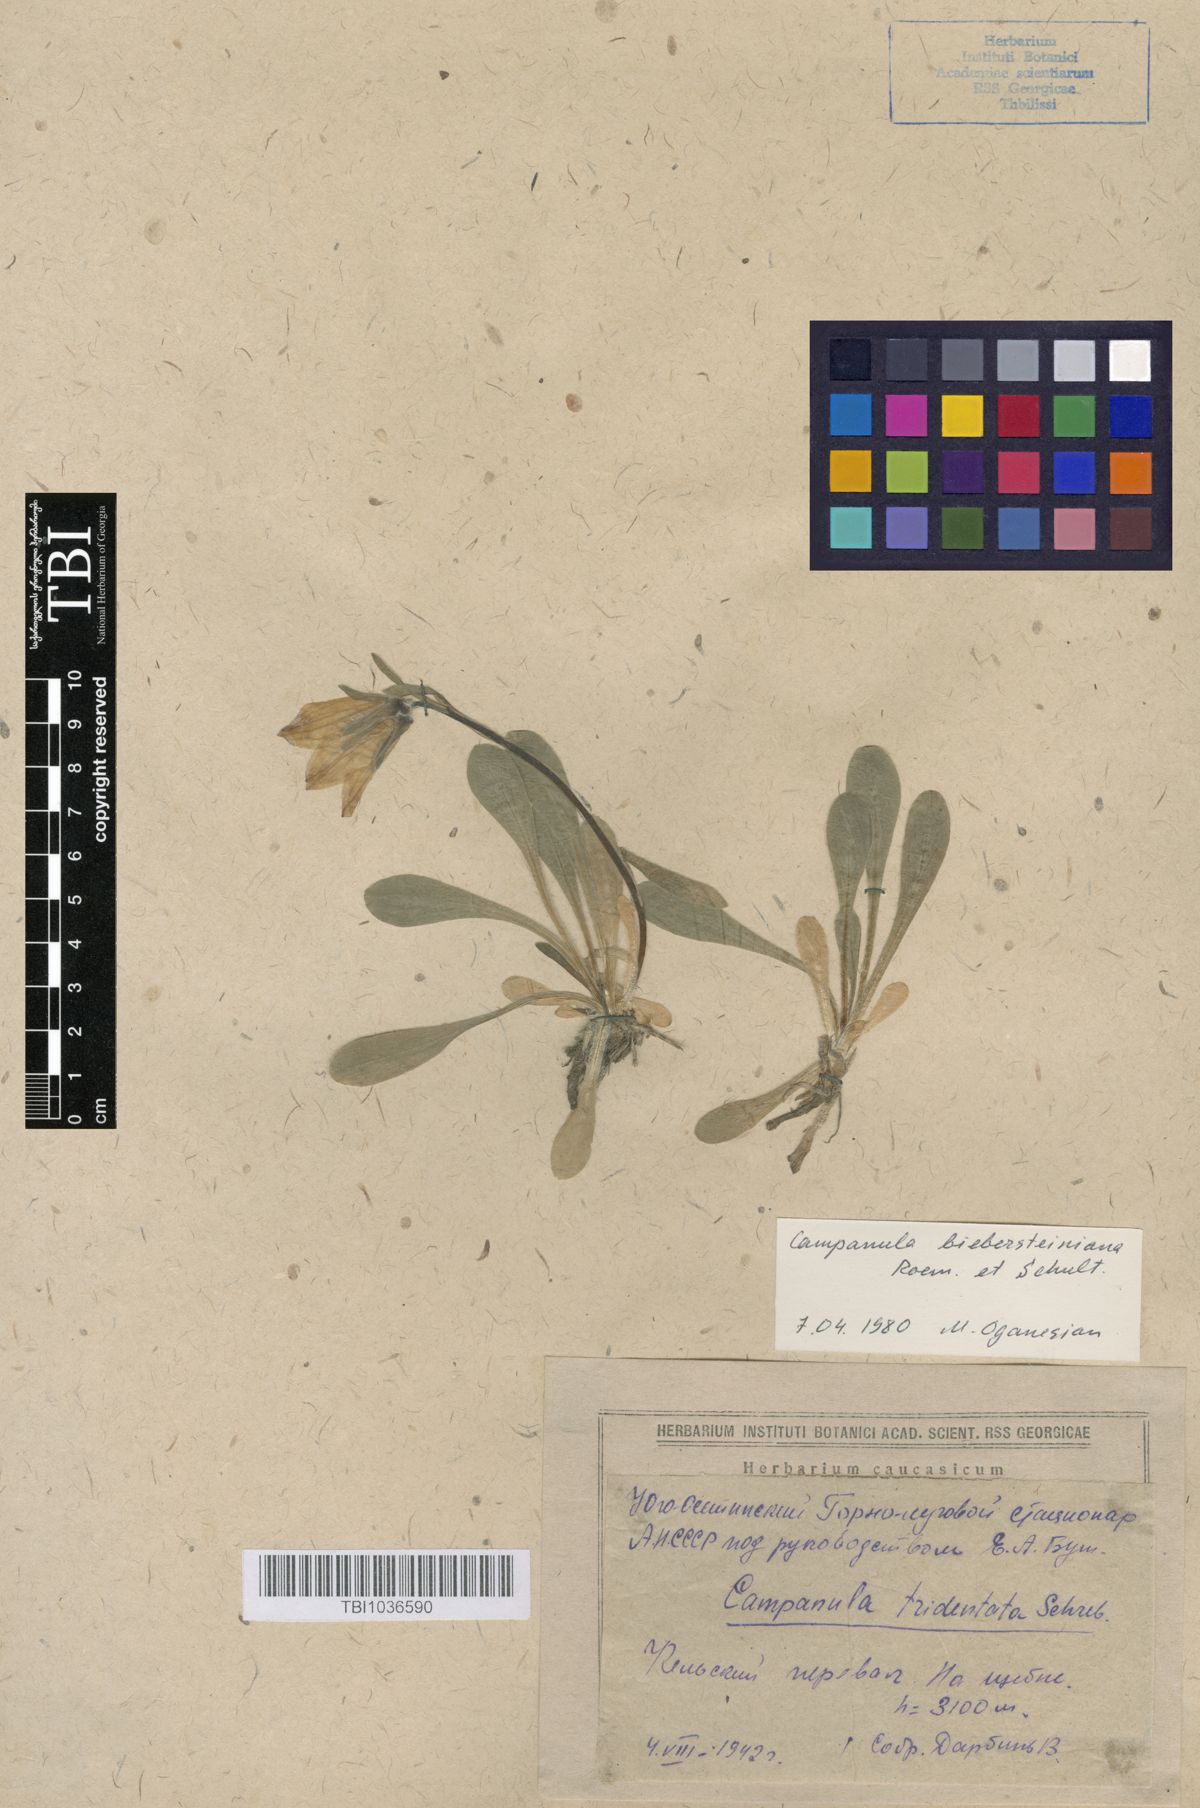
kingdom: Plantae
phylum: Tracheophyta
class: Magnoliopsida
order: Asterales
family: Campanulaceae
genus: Campanula
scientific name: Campanula tridentata
